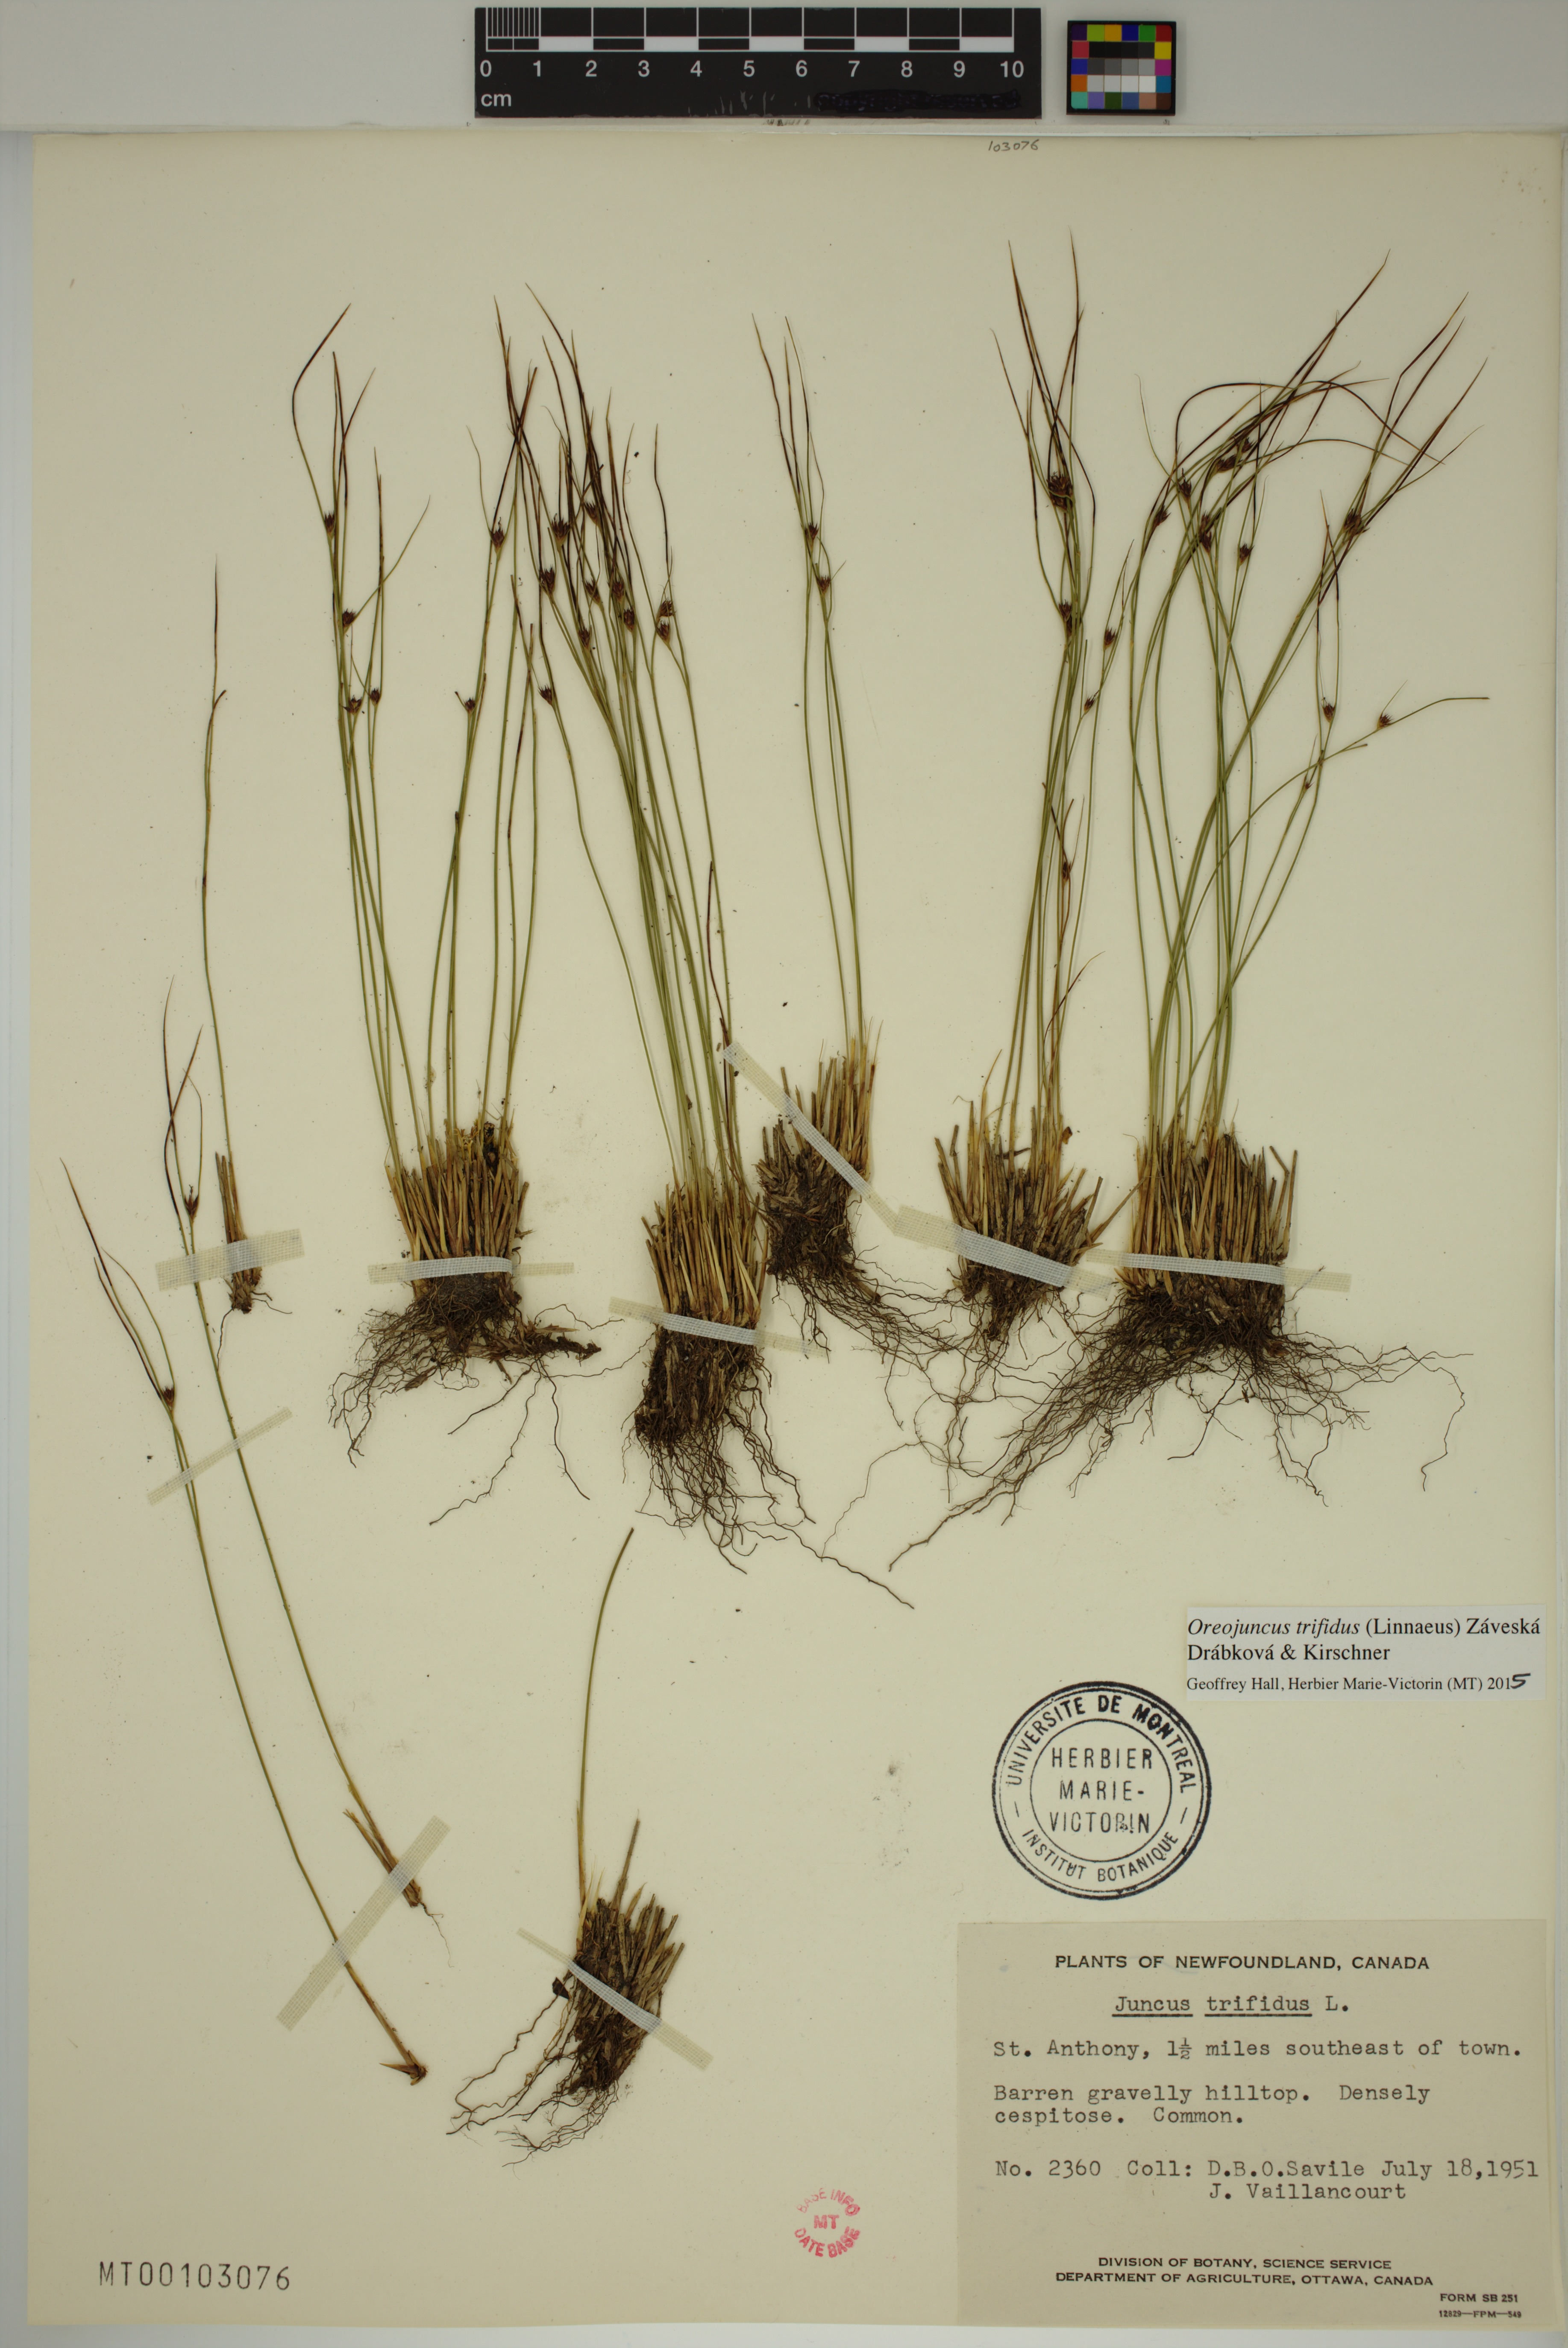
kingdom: Plantae
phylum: Tracheophyta
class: Liliopsida
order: Poales
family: Juncaceae
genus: Oreojuncus
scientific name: Oreojuncus trifidus
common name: Highland rush
